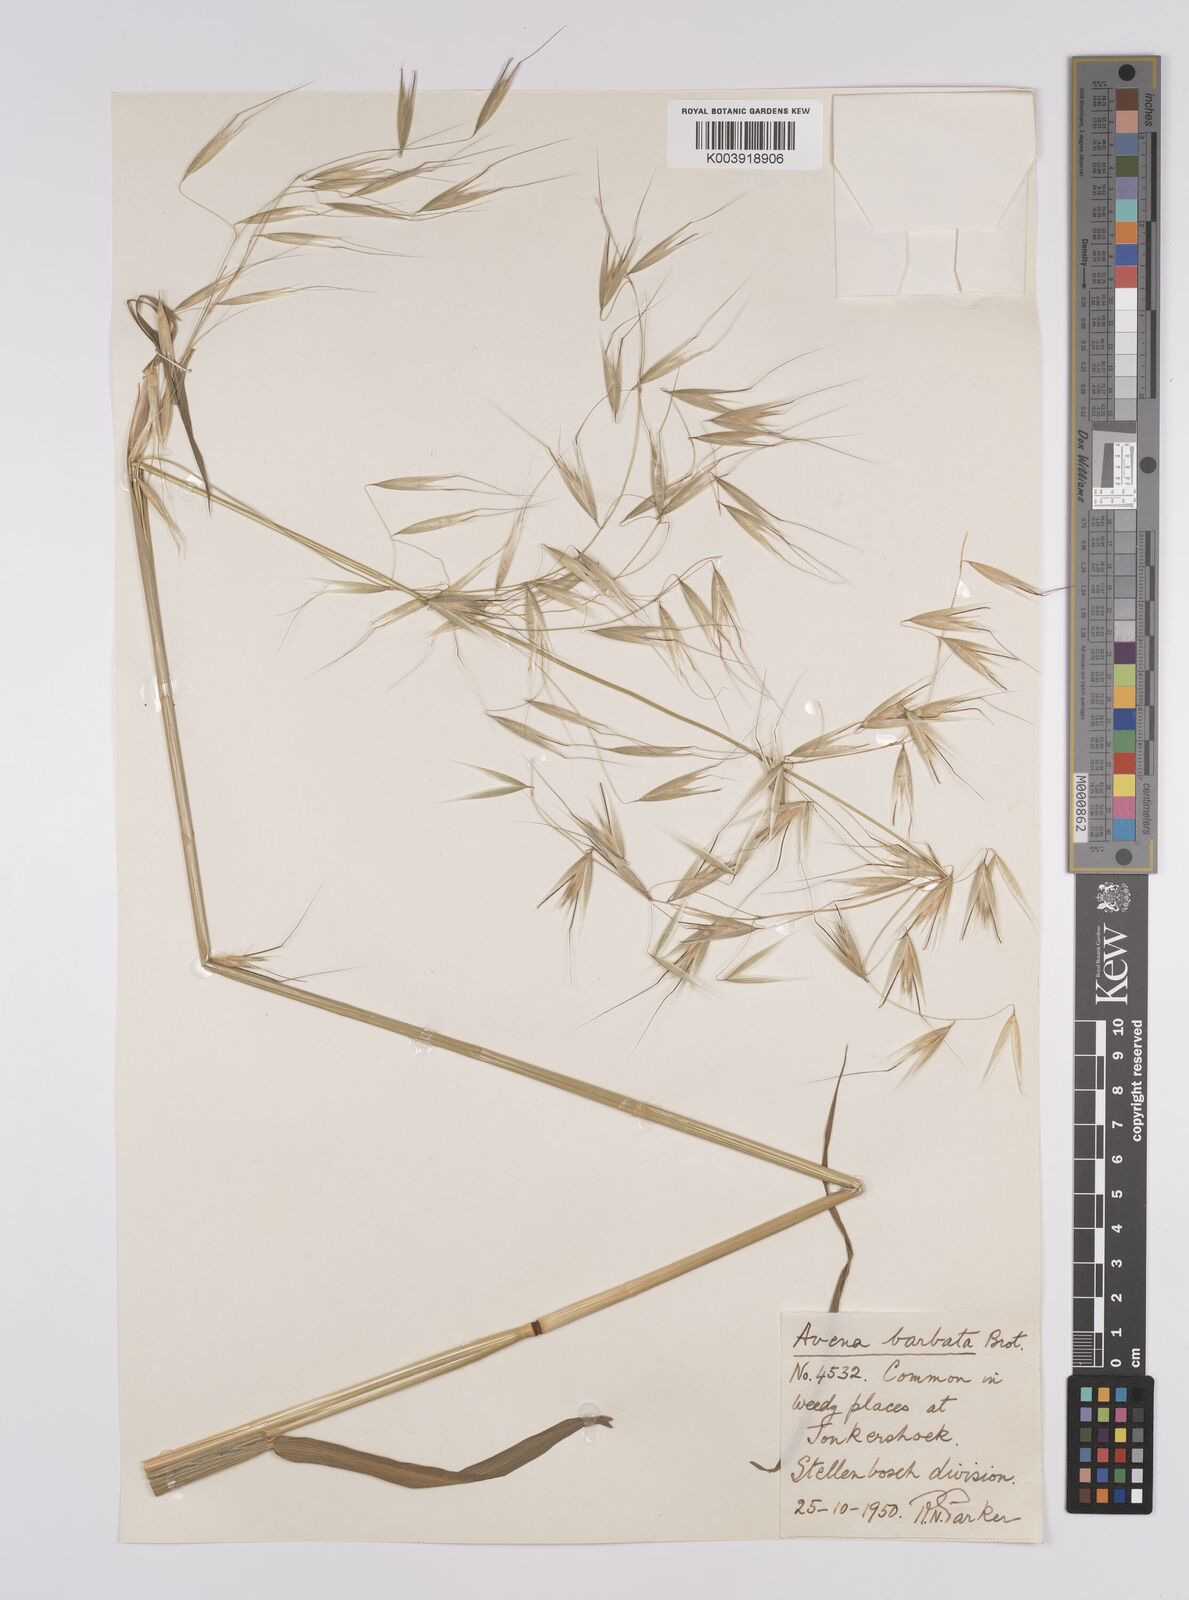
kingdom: Plantae
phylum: Tracheophyta
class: Liliopsida
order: Poales
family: Poaceae
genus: Avena
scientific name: Avena
